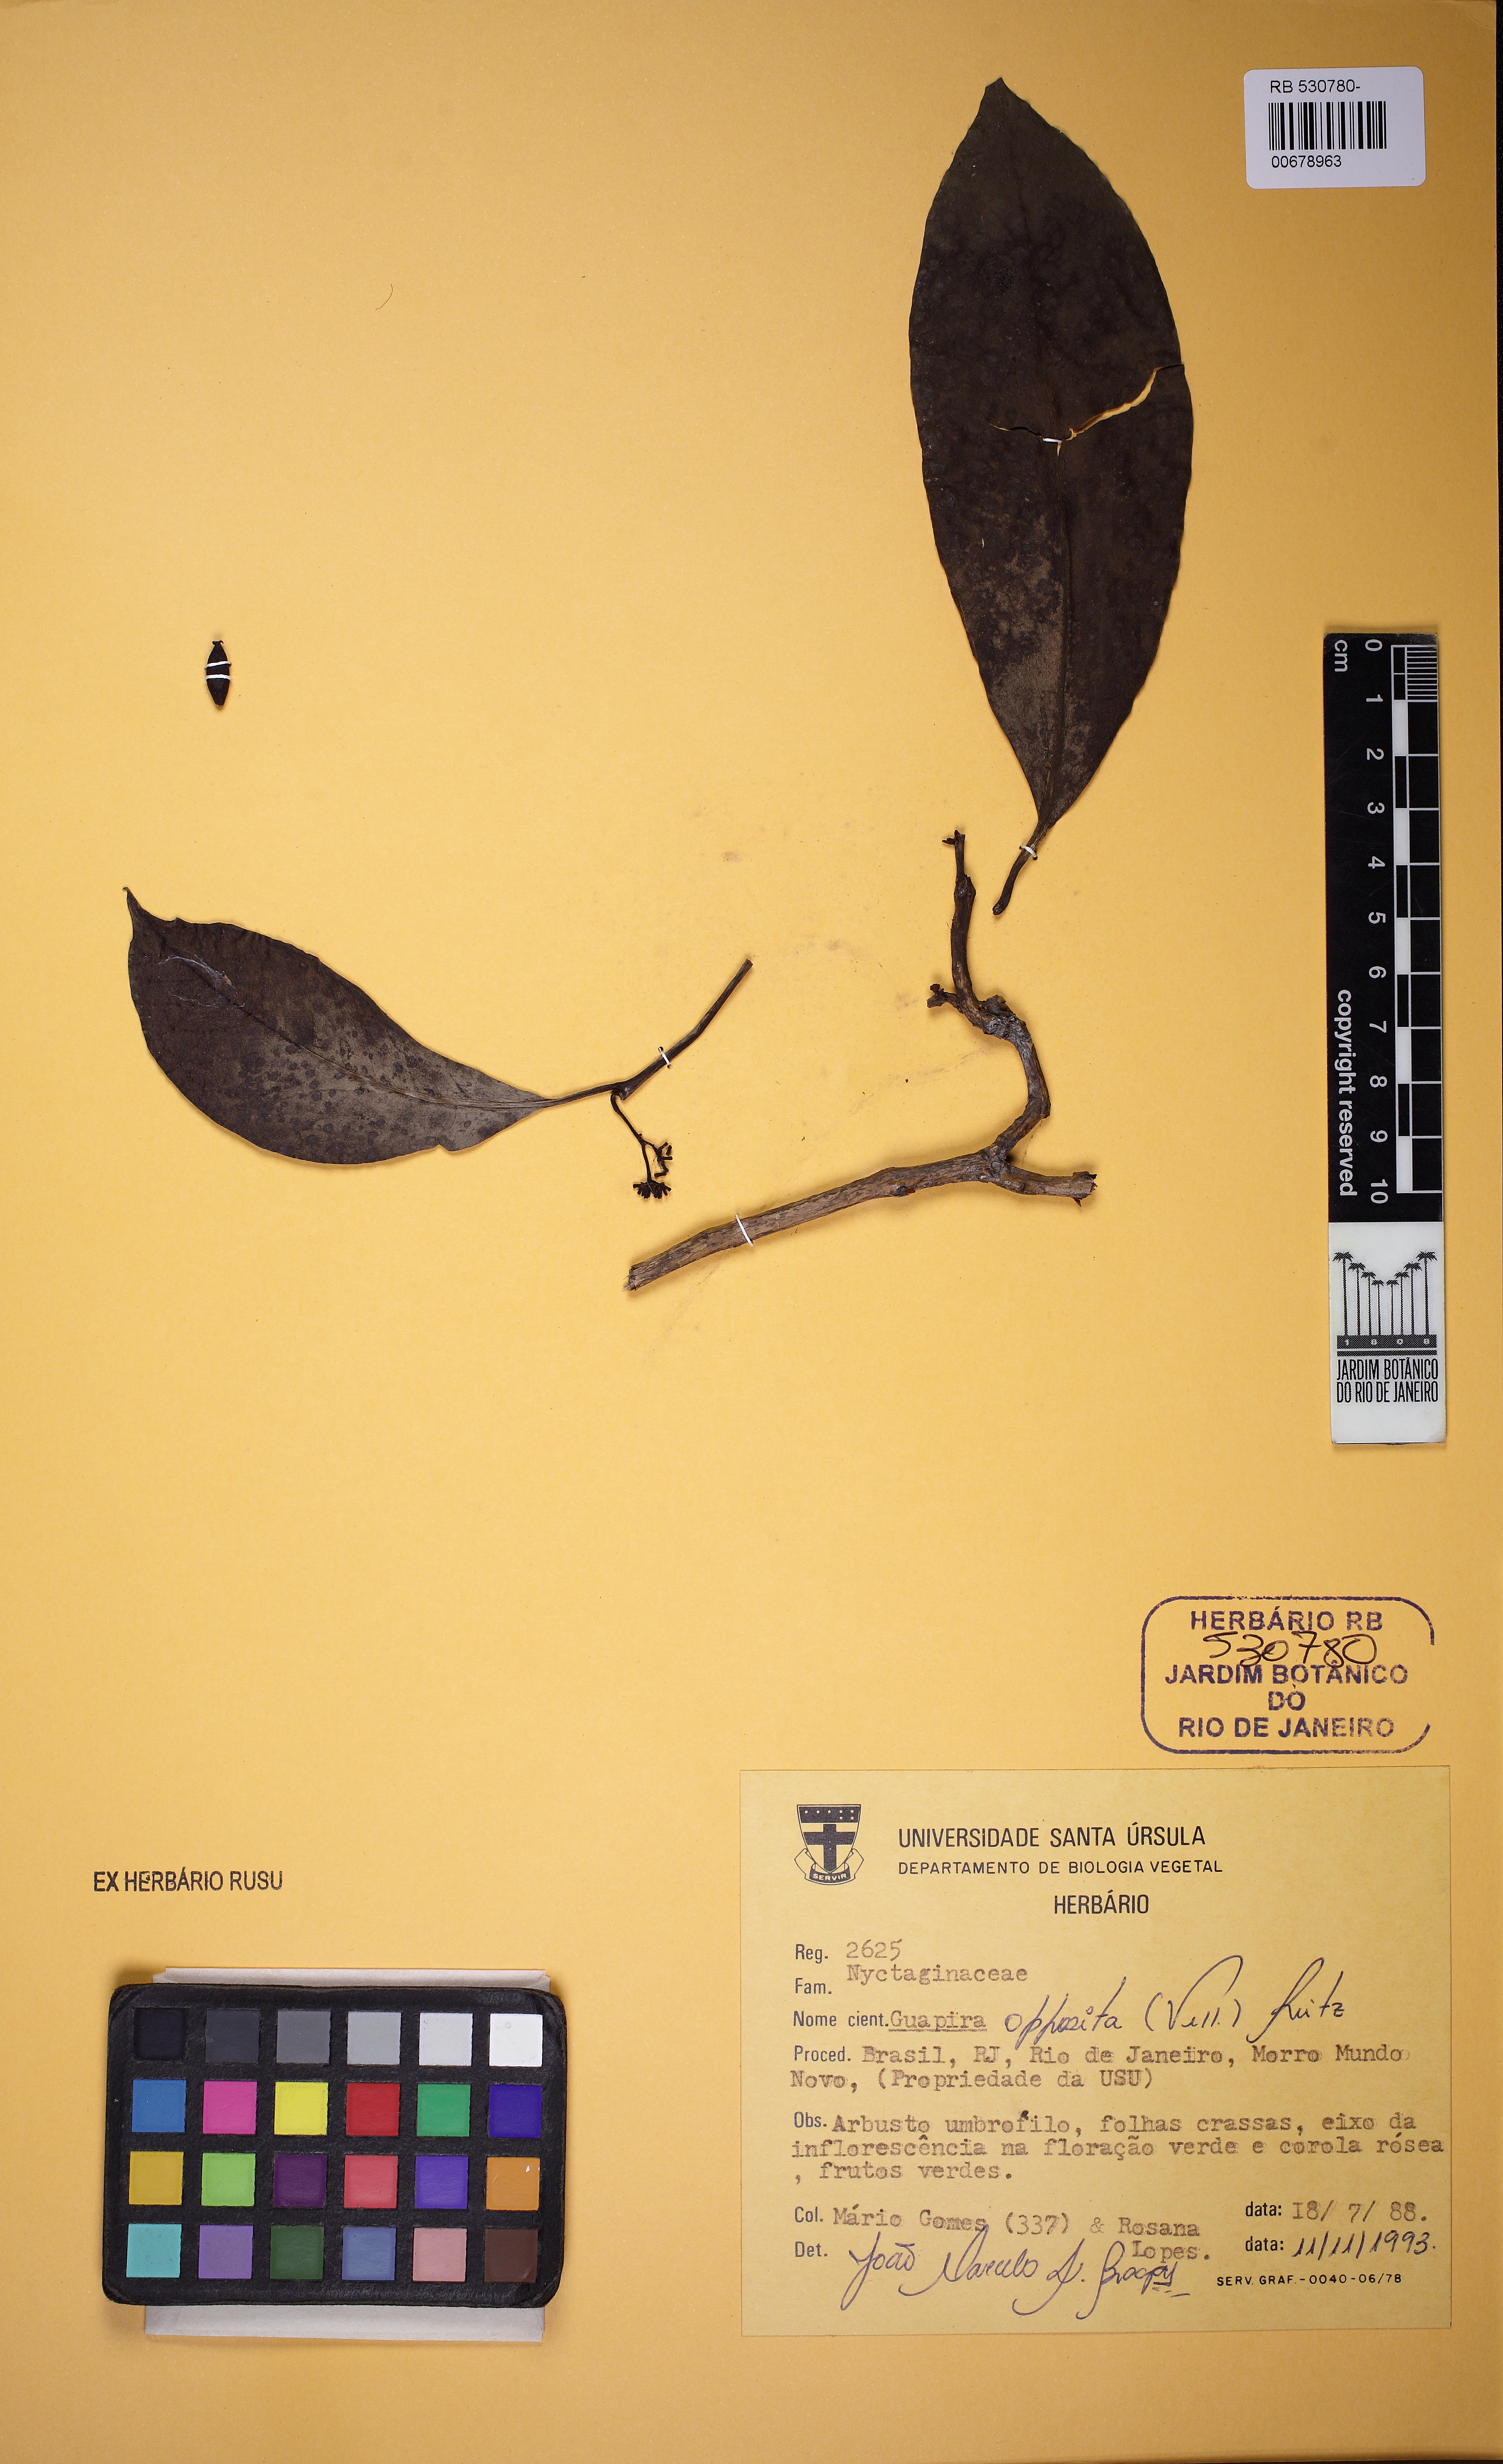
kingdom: Plantae
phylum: Tracheophyta
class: Magnoliopsida
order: Caryophyllales
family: Nyctaginaceae
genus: Guapira
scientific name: Guapira opposita
